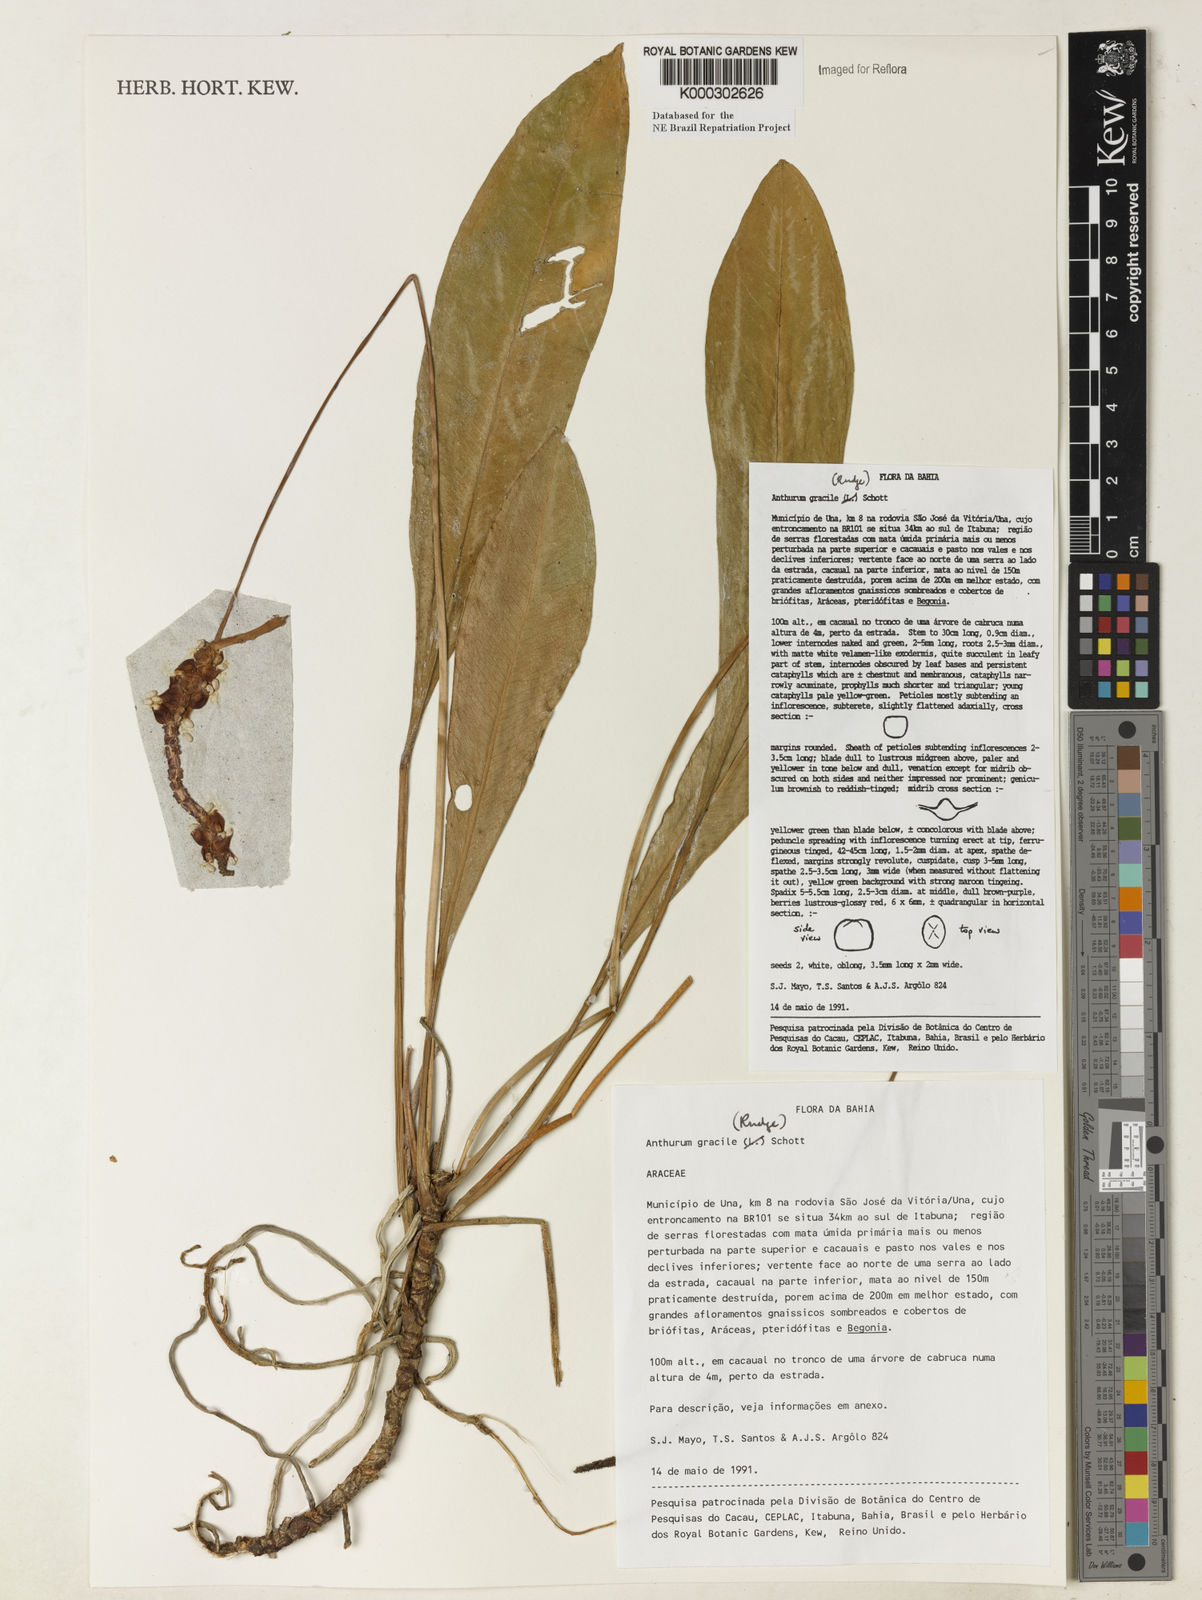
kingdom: Plantae
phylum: Tracheophyta
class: Liliopsida
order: Alismatales
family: Araceae
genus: Anthurium
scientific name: Anthurium
